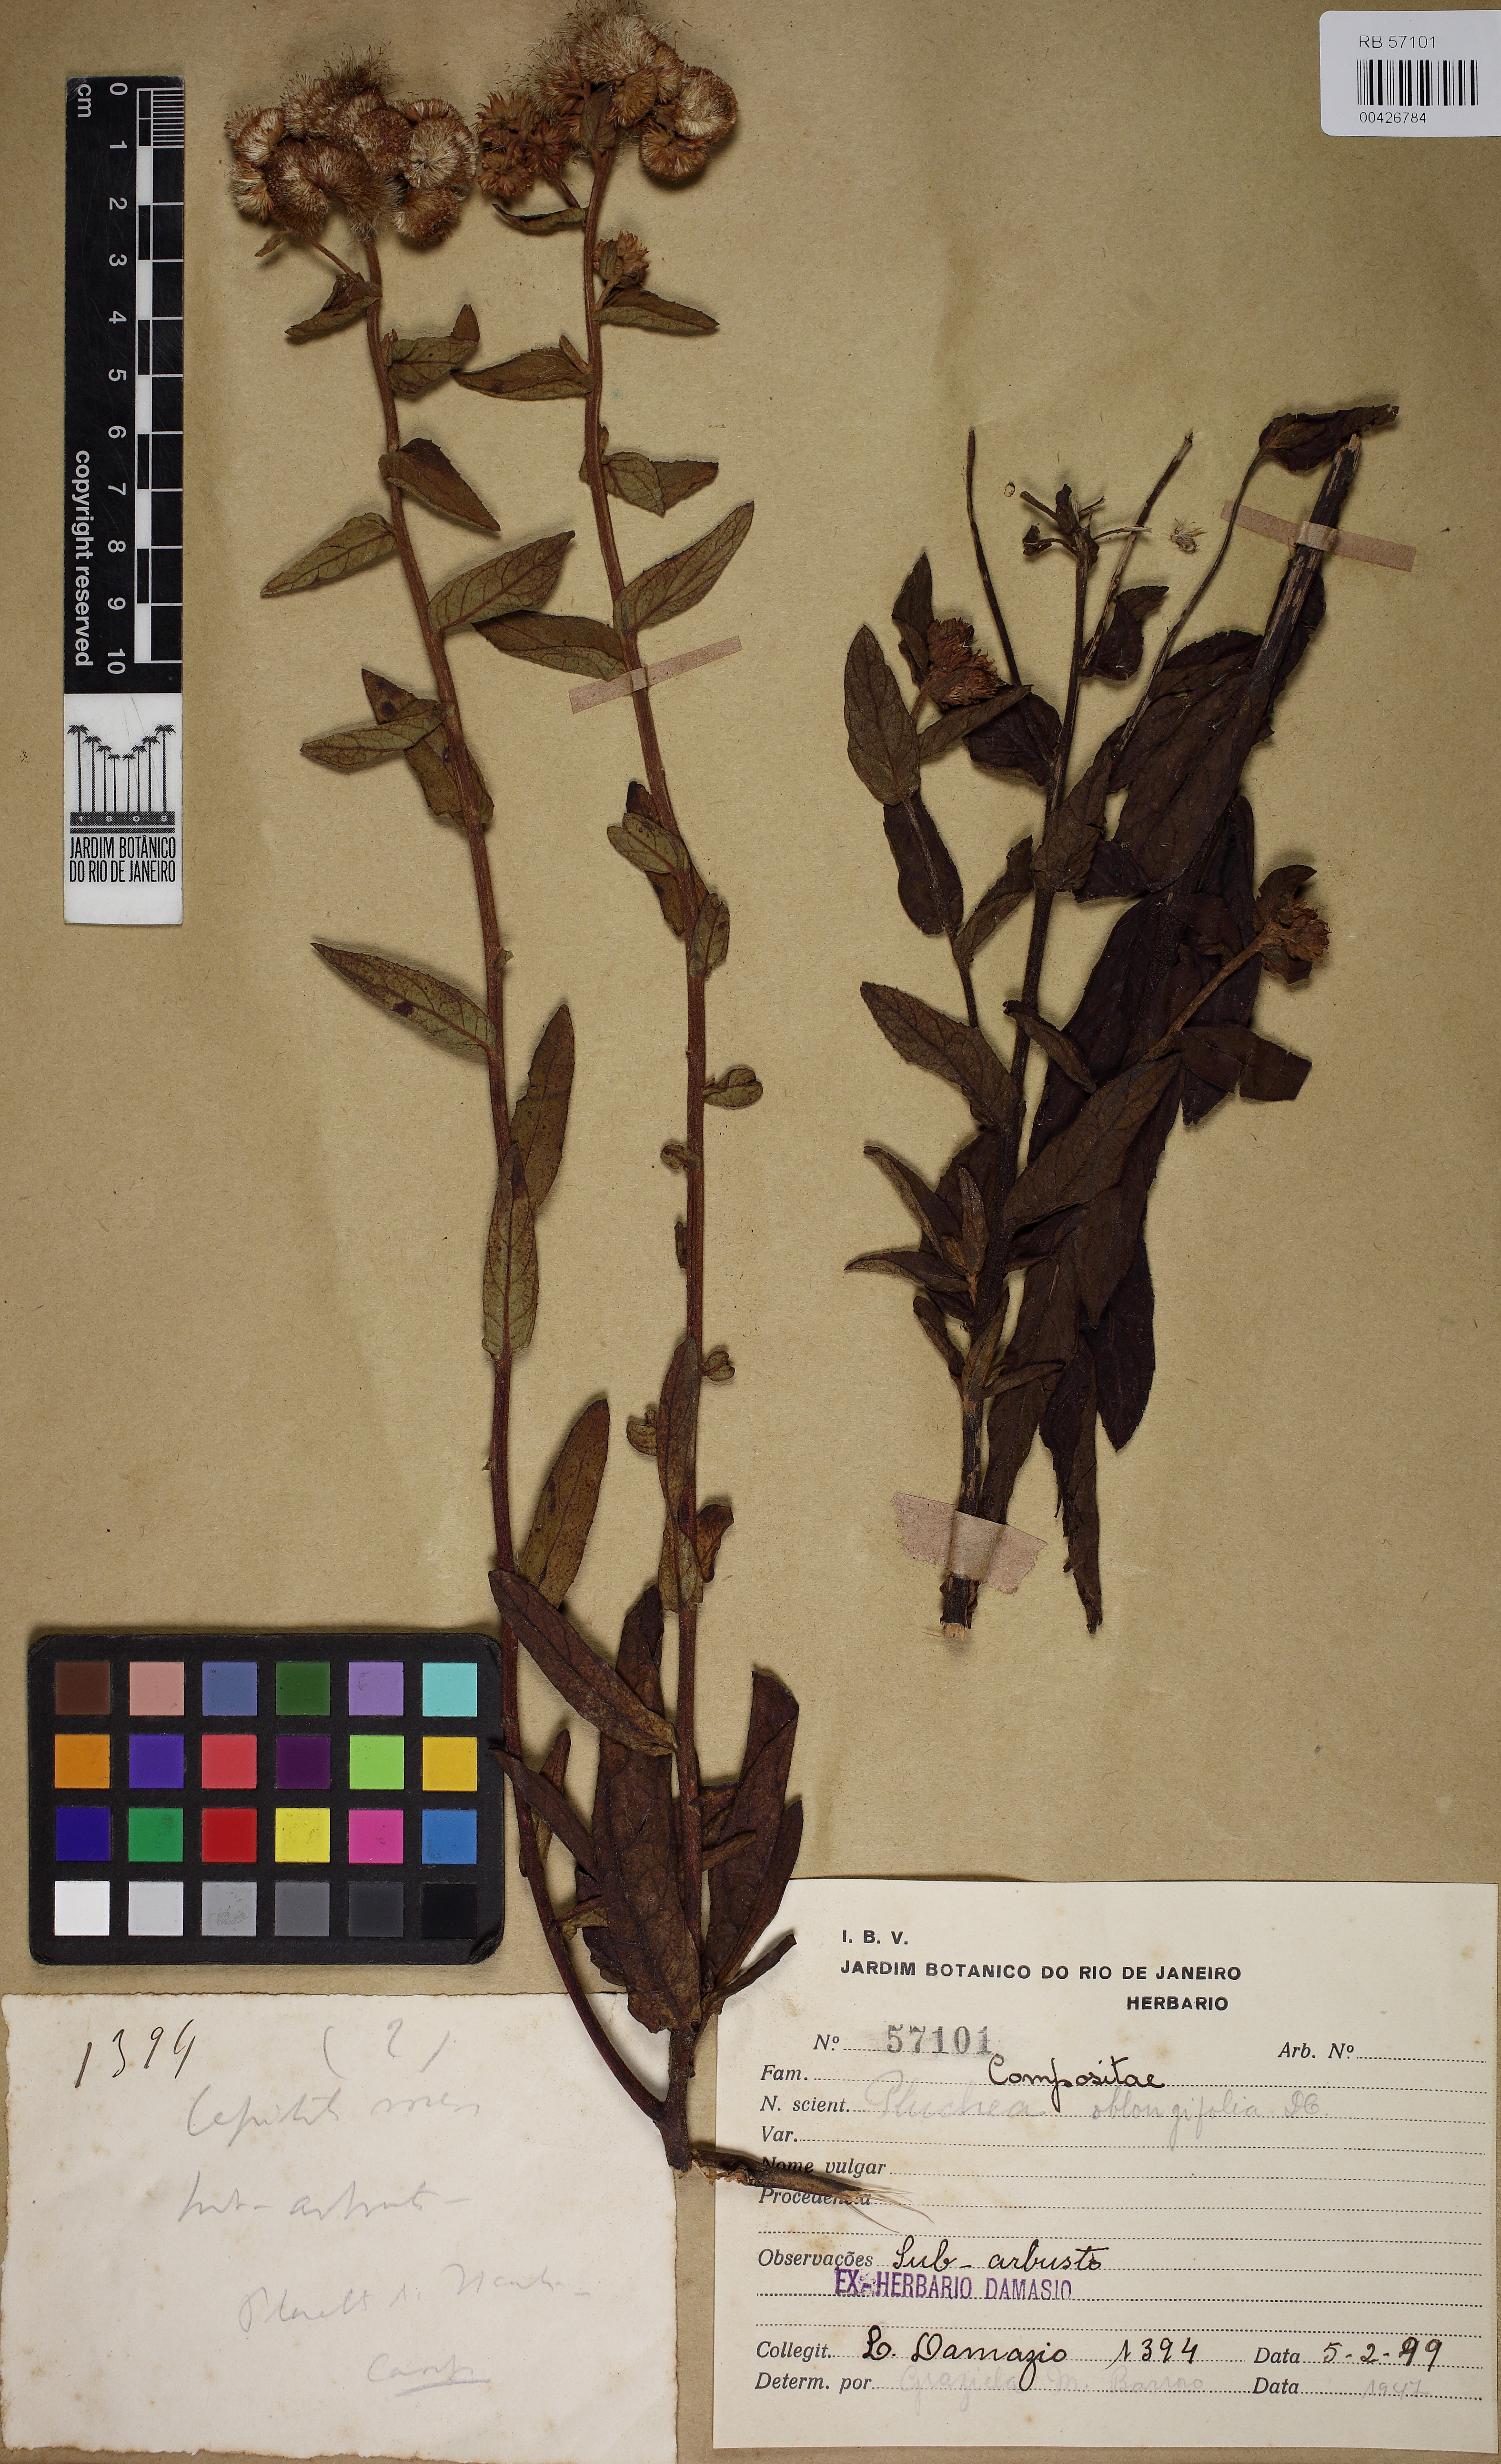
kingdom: Plantae
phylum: Tracheophyta
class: Magnoliopsida
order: Asterales
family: Asteraceae
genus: Pluchea
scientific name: Pluchea oblongifolia
